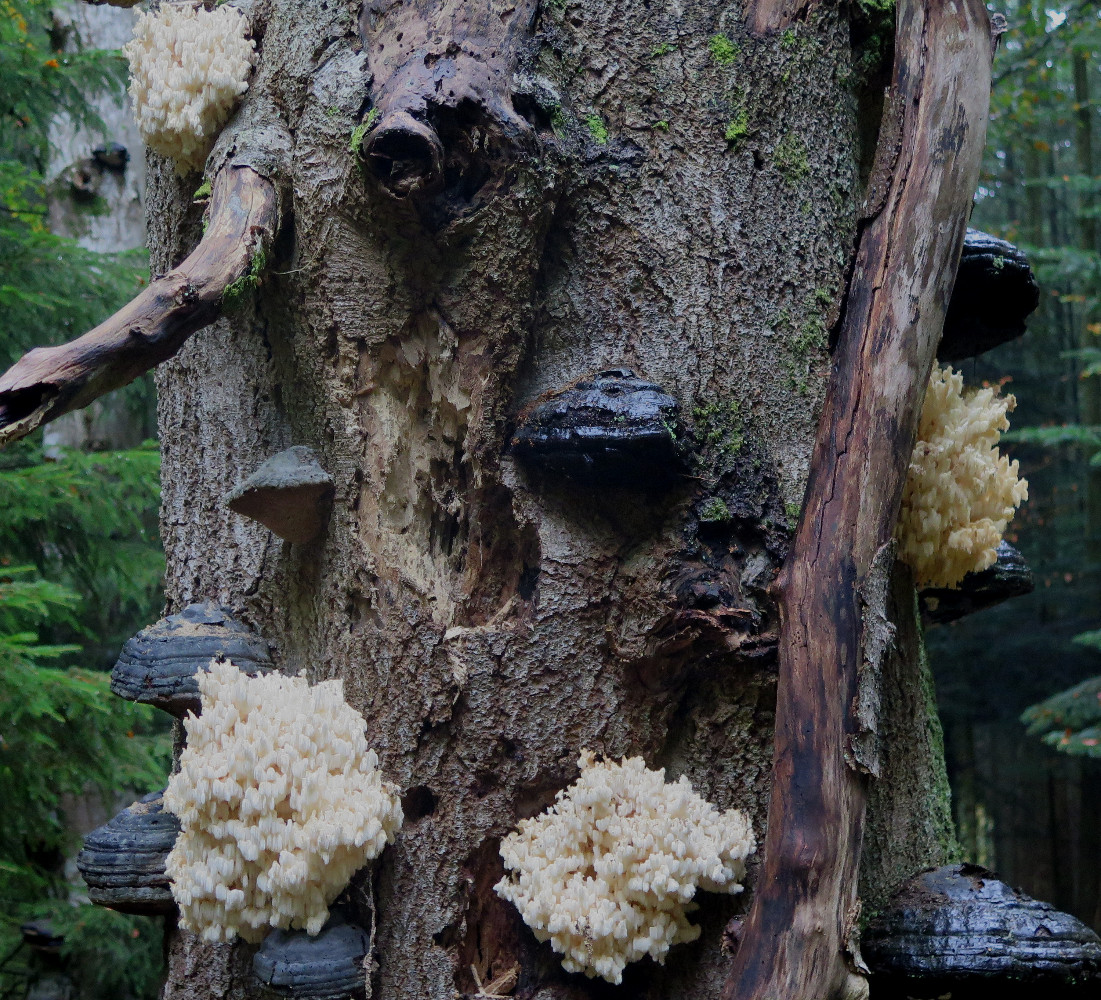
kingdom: Fungi
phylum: Basidiomycota
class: Agaricomycetes
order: Russulales
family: Hericiaceae
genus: Hericium
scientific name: Hericium coralloides
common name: koralpigsvamp
